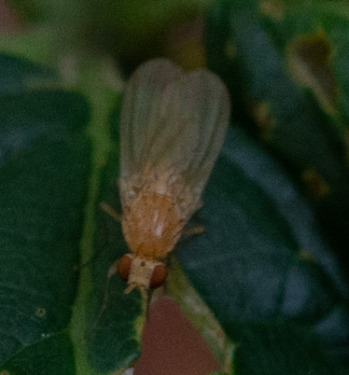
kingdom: Animalia
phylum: Arthropoda
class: Insecta
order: Diptera
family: Lauxaniidae
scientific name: Lauxaniidae
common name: Løvfluer
